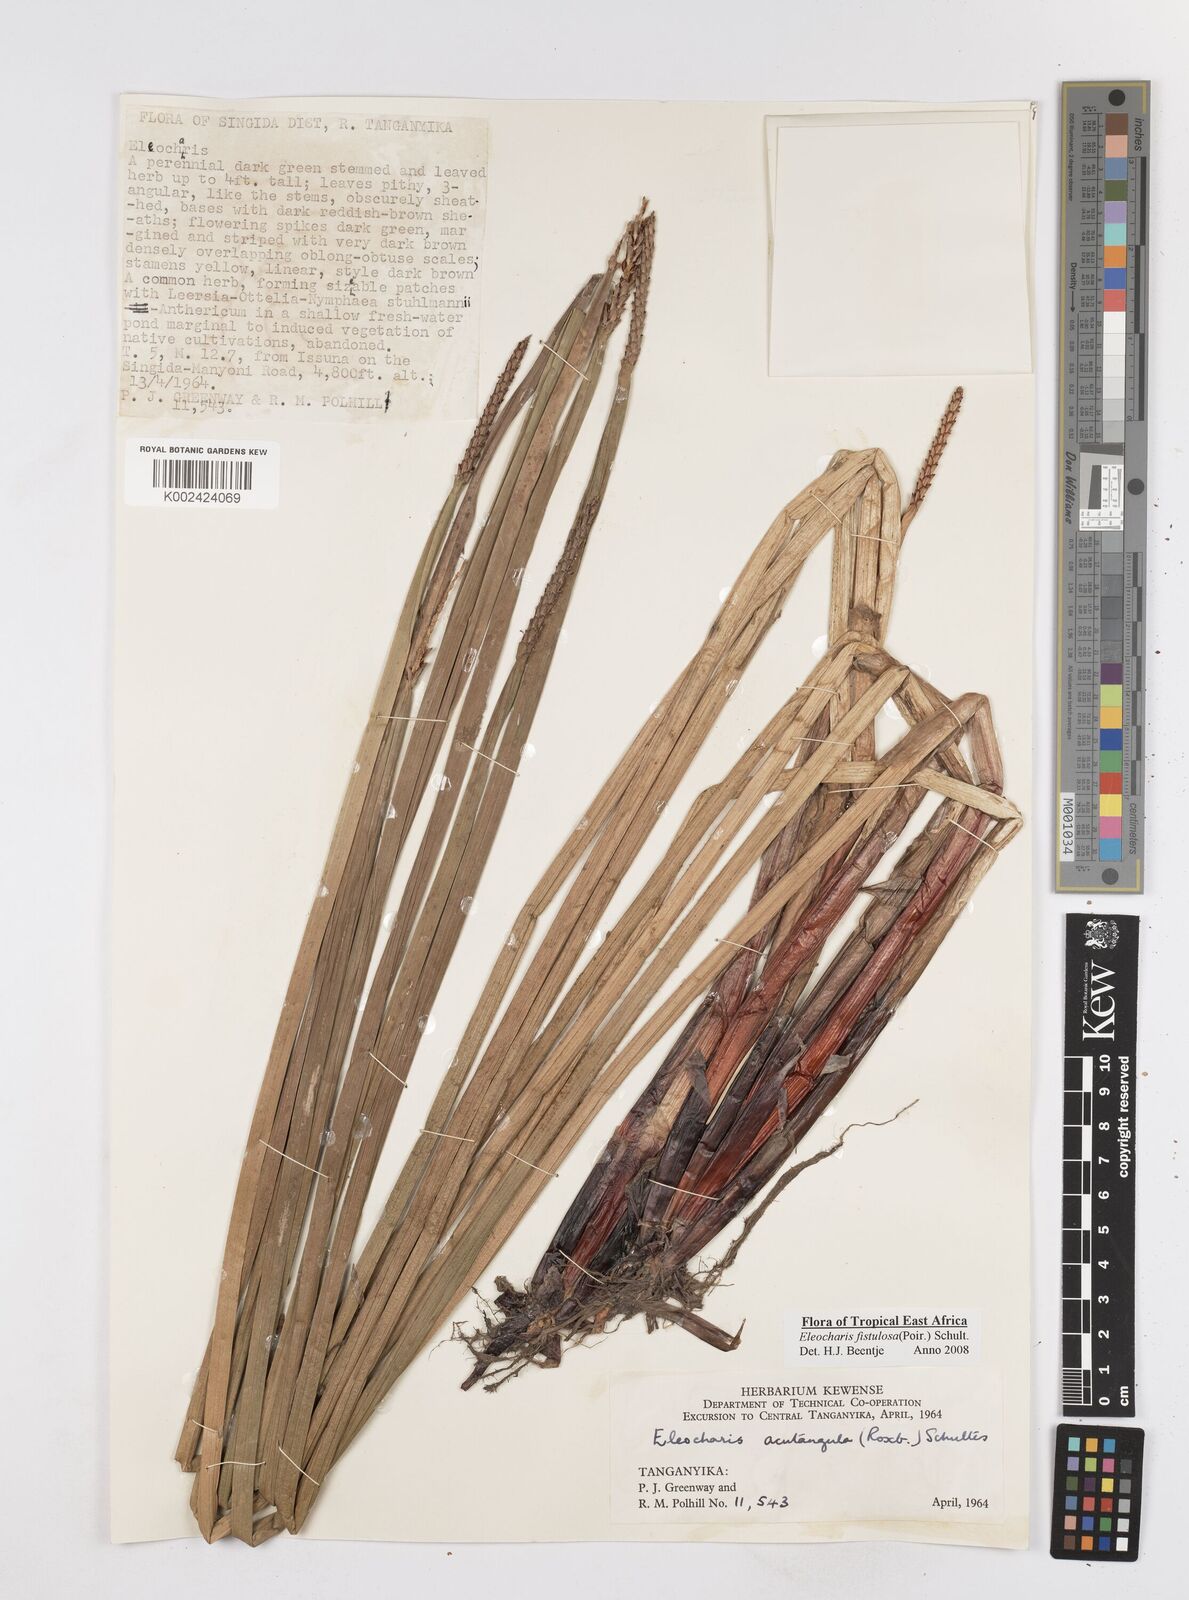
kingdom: Plantae
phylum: Tracheophyta
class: Liliopsida
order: Poales
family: Cyperaceae
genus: Eleocharis
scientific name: Eleocharis acutangula
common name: Acute spikerush
